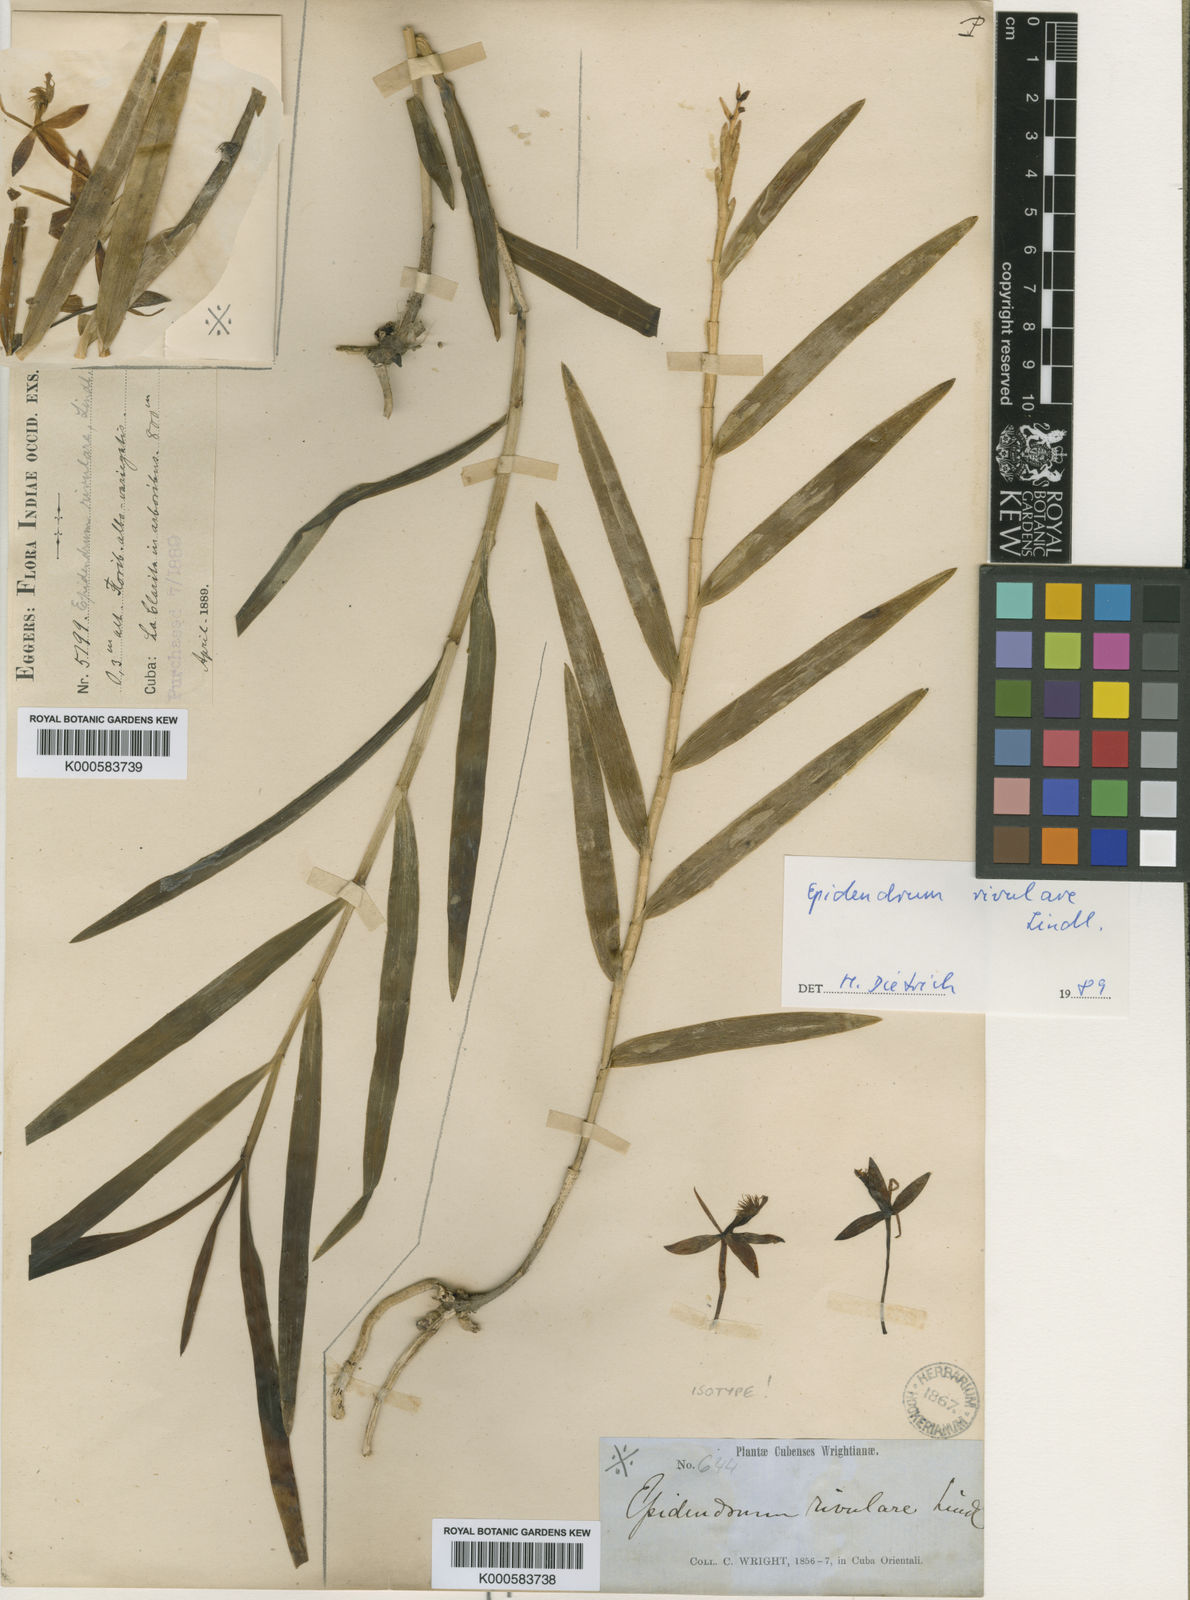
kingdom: Plantae
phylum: Tracheophyta
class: Liliopsida
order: Asparagales
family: Orchidaceae
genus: Epidendrum
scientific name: Epidendrum rivulare
